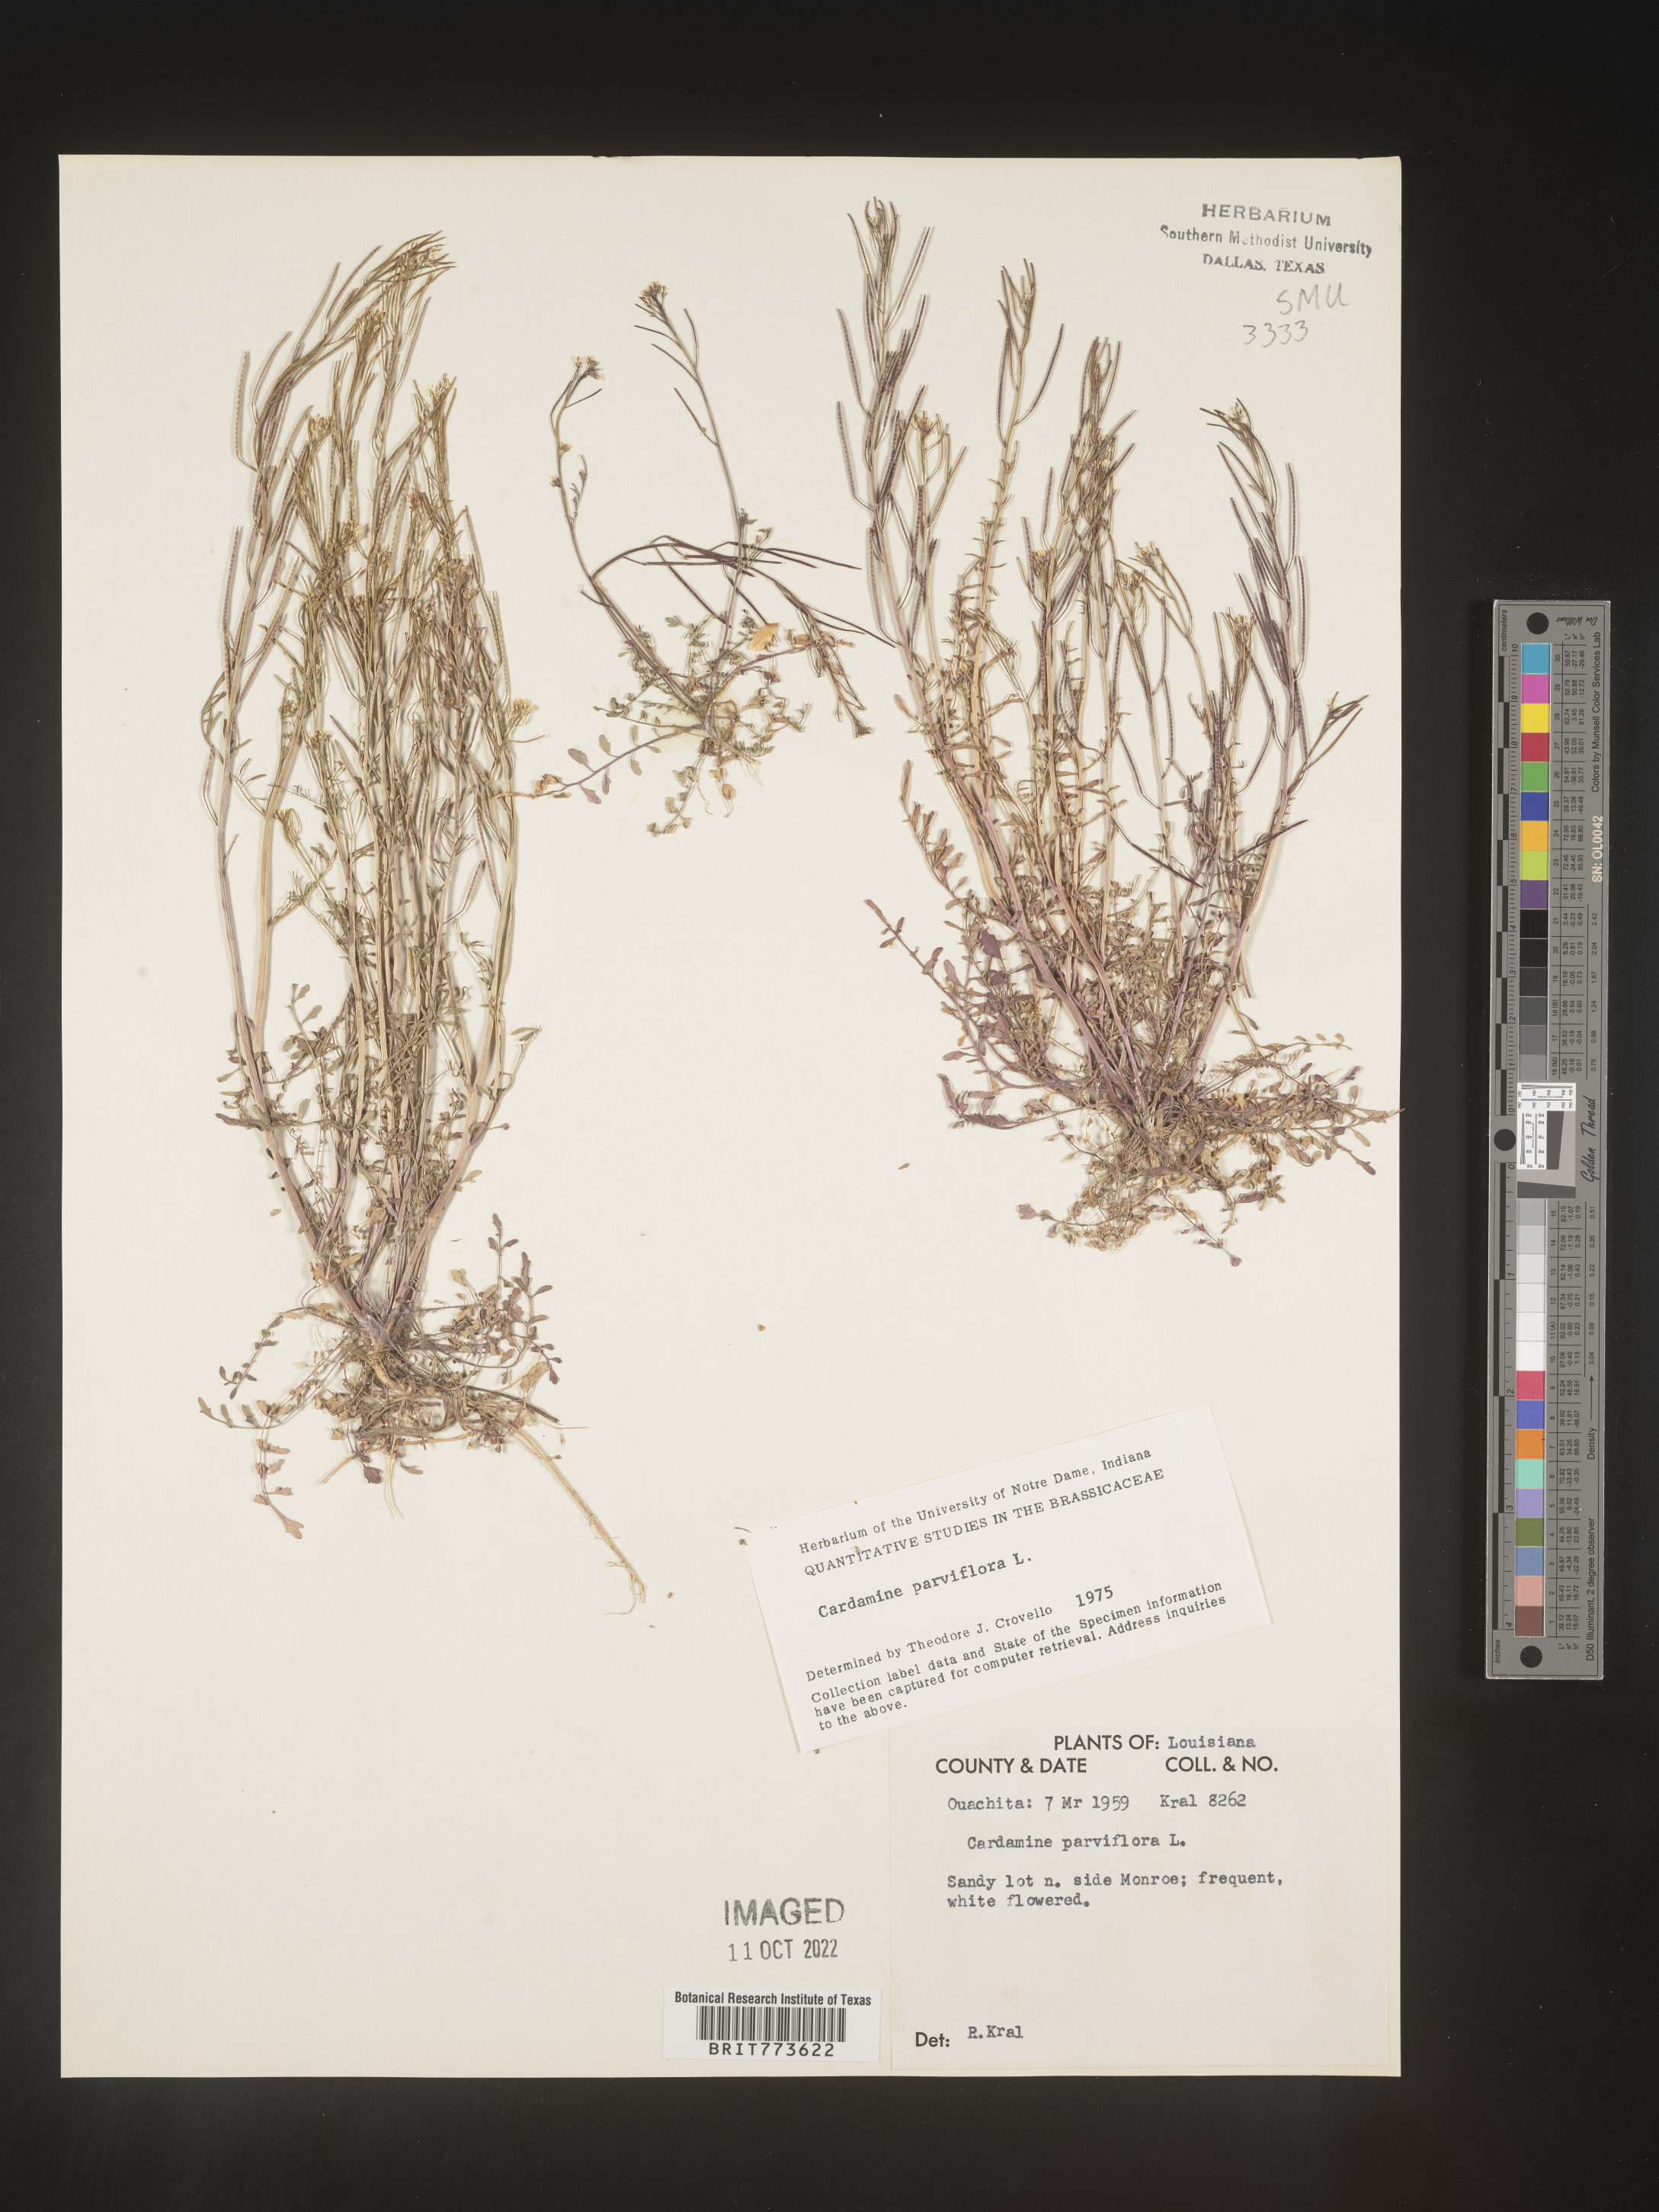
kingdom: Plantae
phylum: Tracheophyta
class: Magnoliopsida
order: Brassicales
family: Brassicaceae
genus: Cardamine
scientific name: Cardamine parviflora
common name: Sand bittercress
